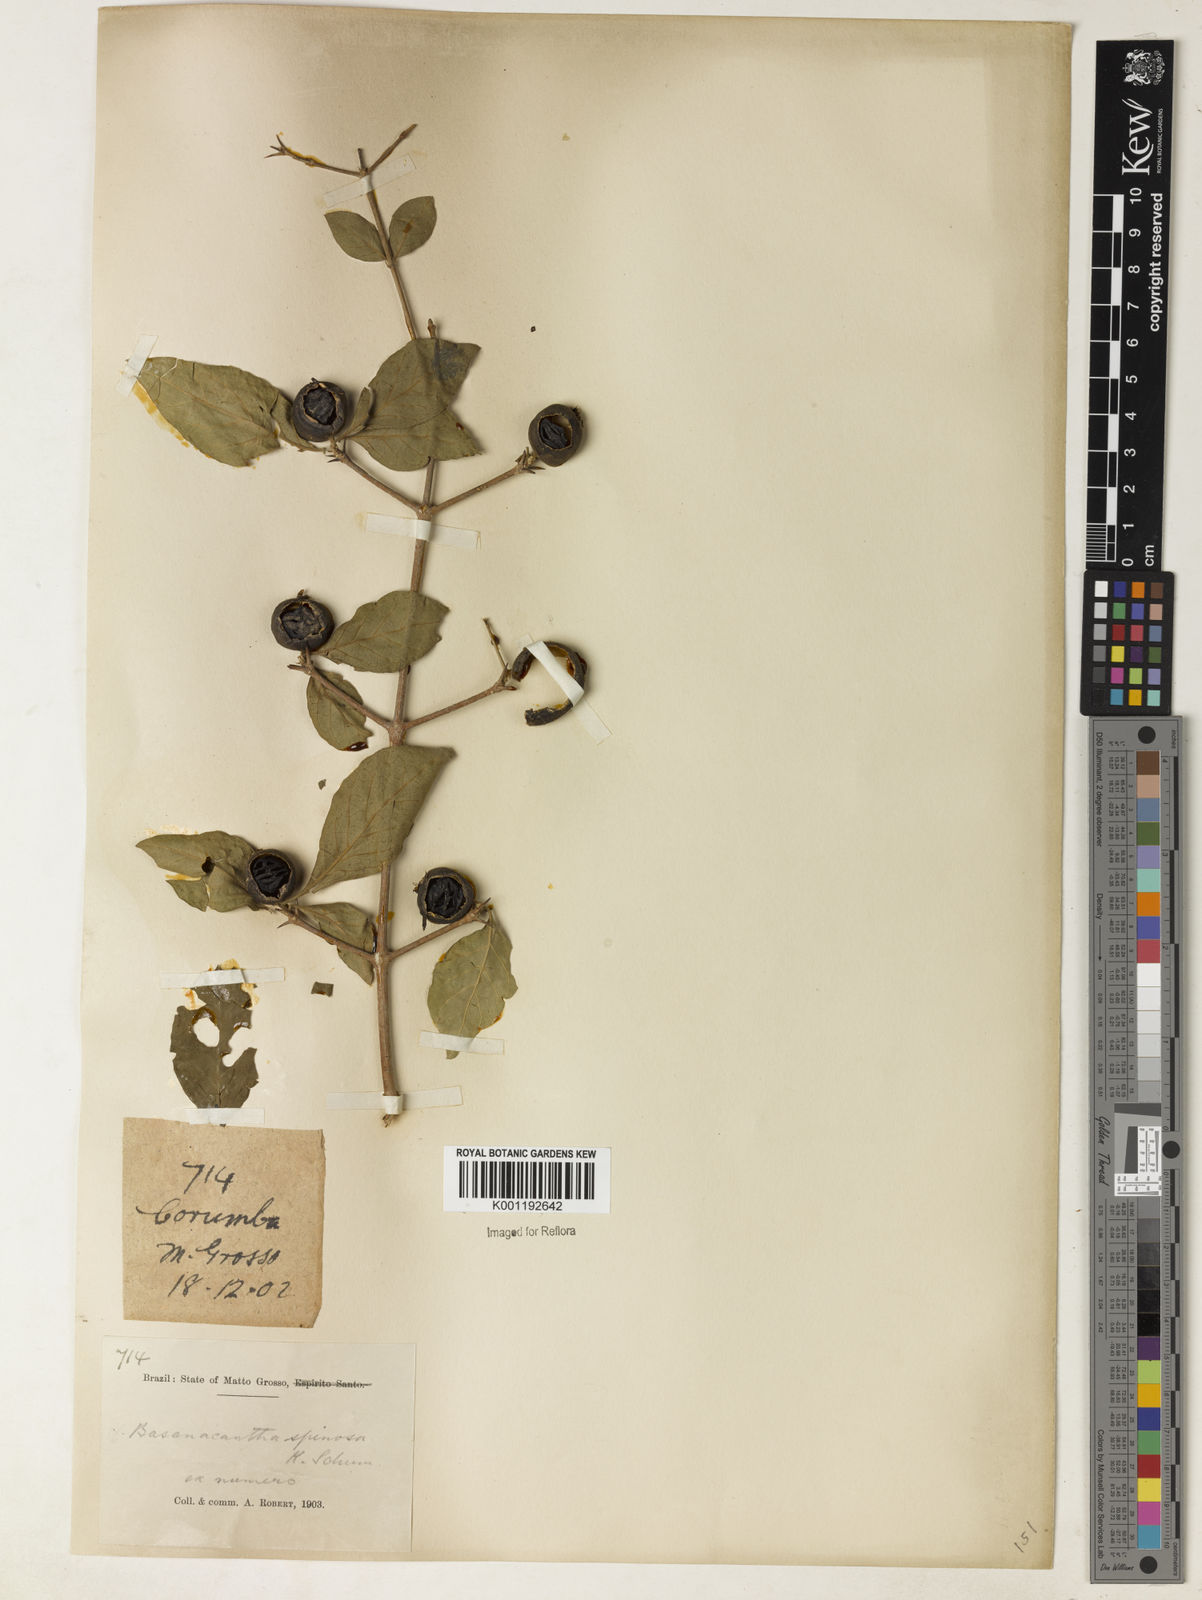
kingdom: Plantae
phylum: Tracheophyta
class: Magnoliopsida
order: Gentianales
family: Rubiaceae
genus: Randia
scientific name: Randia armata
